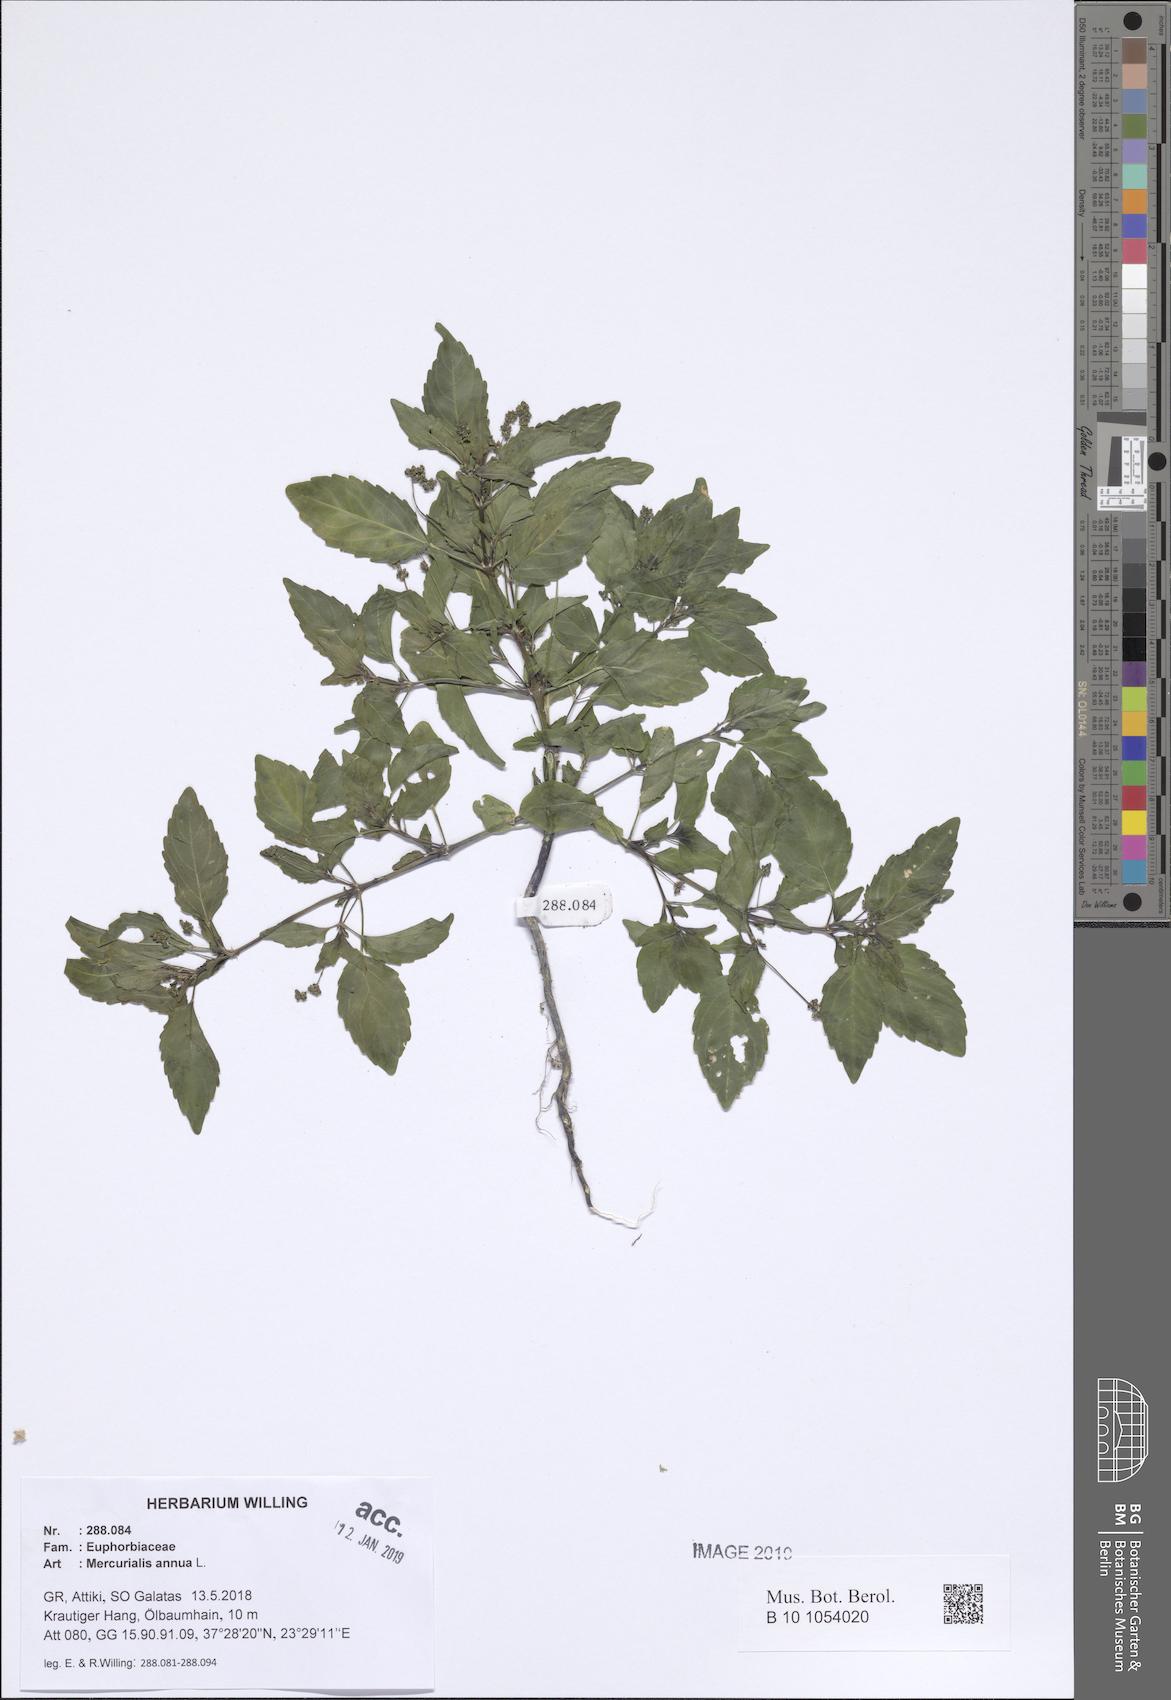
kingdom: Plantae
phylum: Tracheophyta
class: Magnoliopsida
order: Malpighiales
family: Euphorbiaceae
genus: Mercurialis
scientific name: Mercurialis annua
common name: Annual mercury
